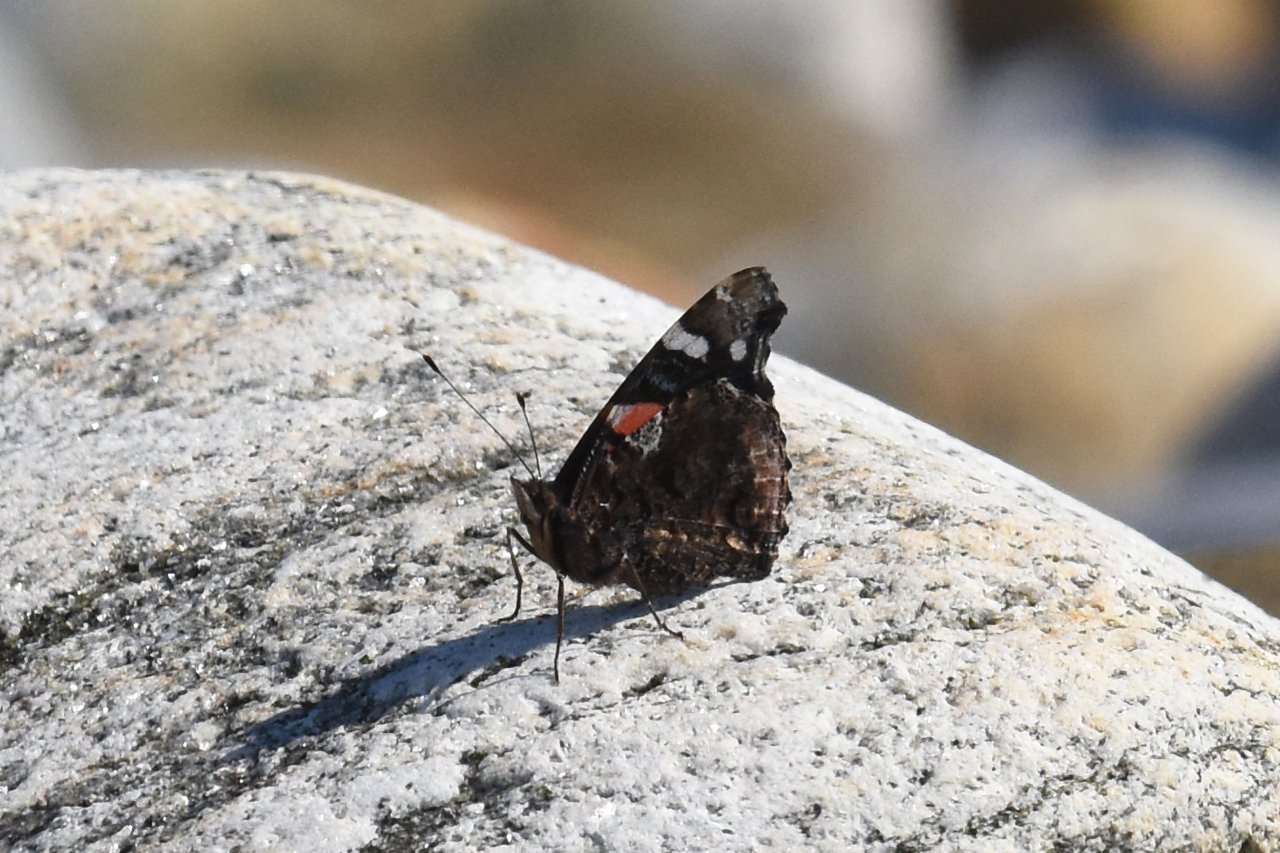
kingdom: Animalia
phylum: Arthropoda
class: Insecta
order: Lepidoptera
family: Nymphalidae
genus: Vanessa
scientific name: Vanessa atalanta
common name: Red Admiral
